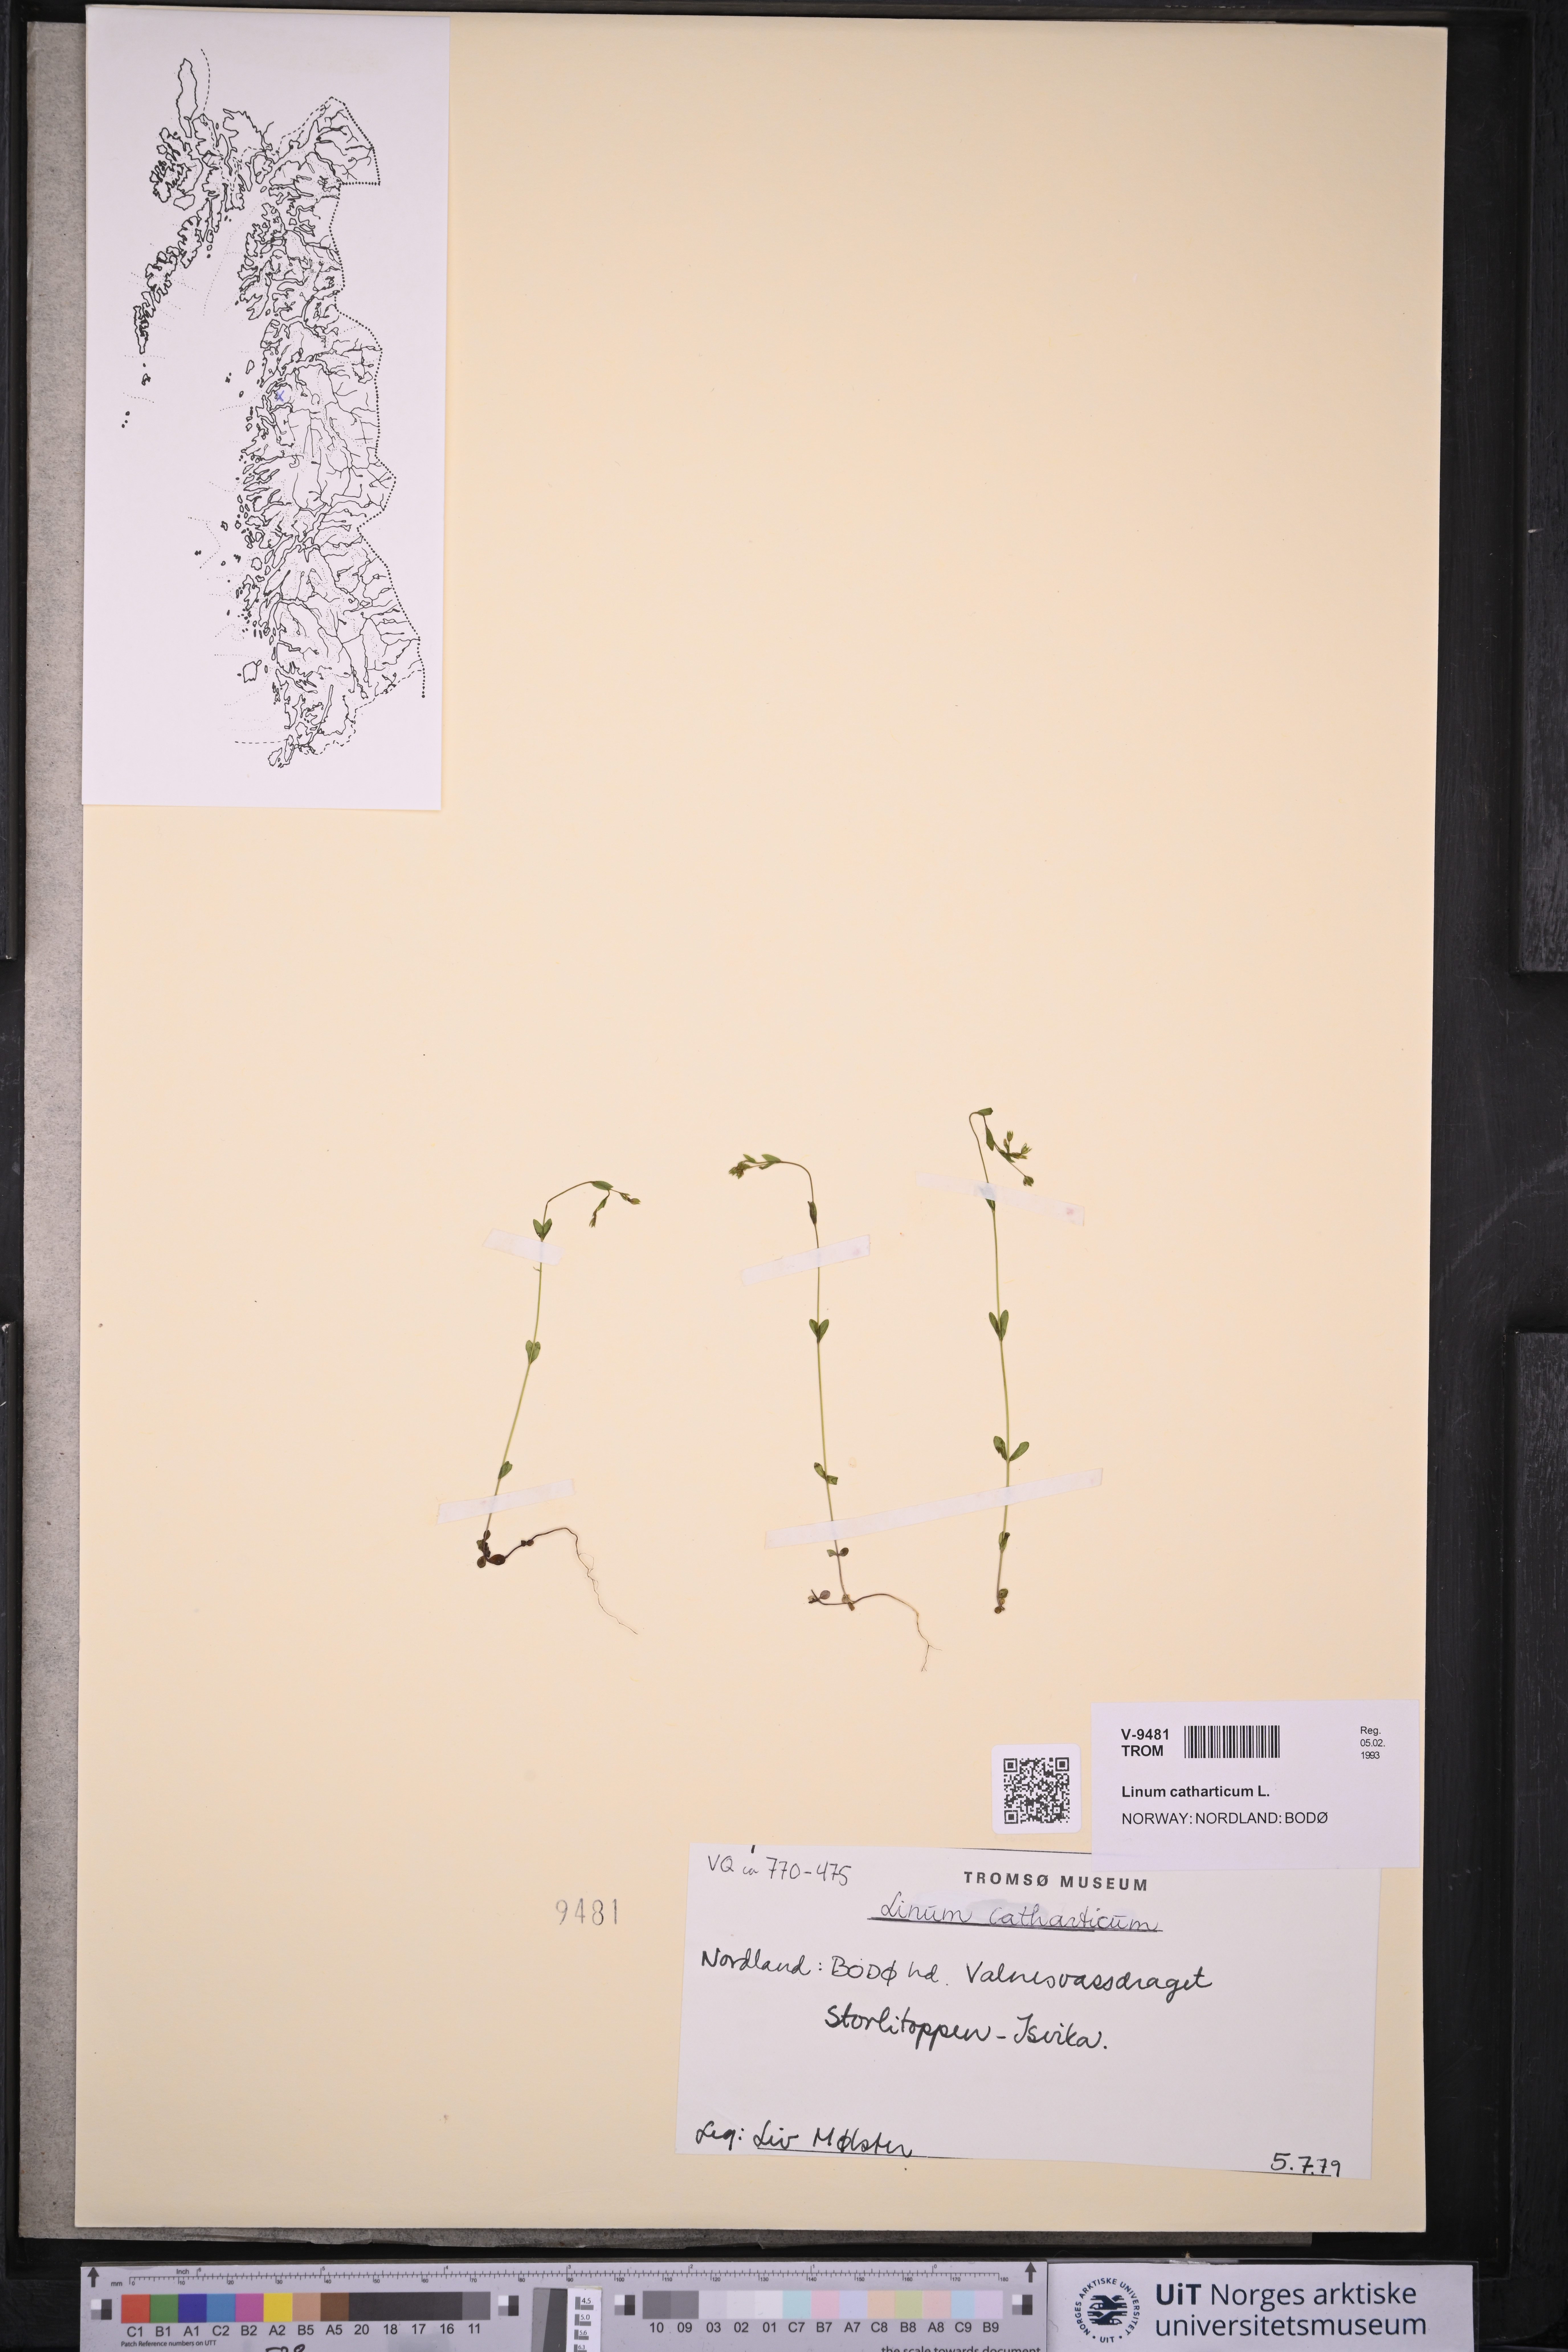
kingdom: Plantae
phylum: Tracheophyta
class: Magnoliopsida
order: Malpighiales
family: Linaceae
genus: Linum
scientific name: Linum catharticum
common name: Fairy flax
